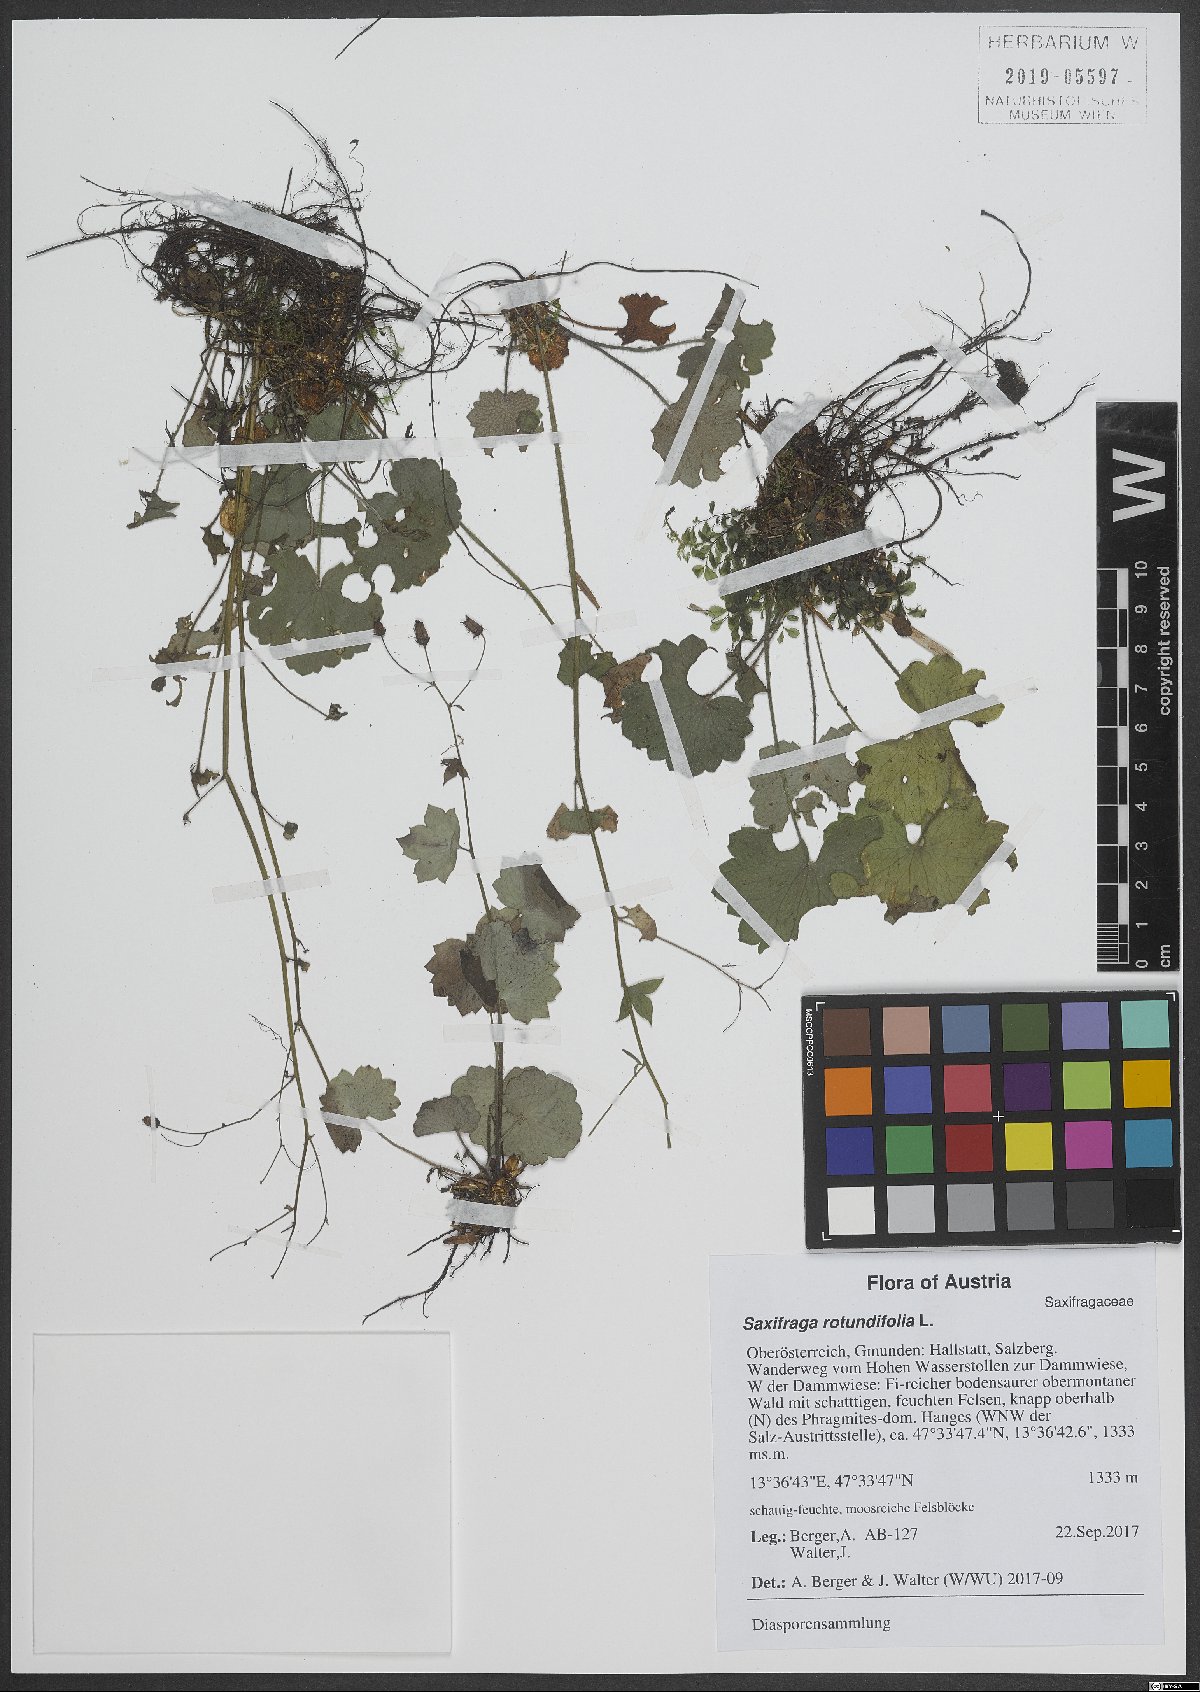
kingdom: Plantae
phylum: Tracheophyta
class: Magnoliopsida
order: Saxifragales
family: Saxifragaceae
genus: Saxifraga
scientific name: Saxifraga rotundifolia
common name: Round-leaved saxifrage
